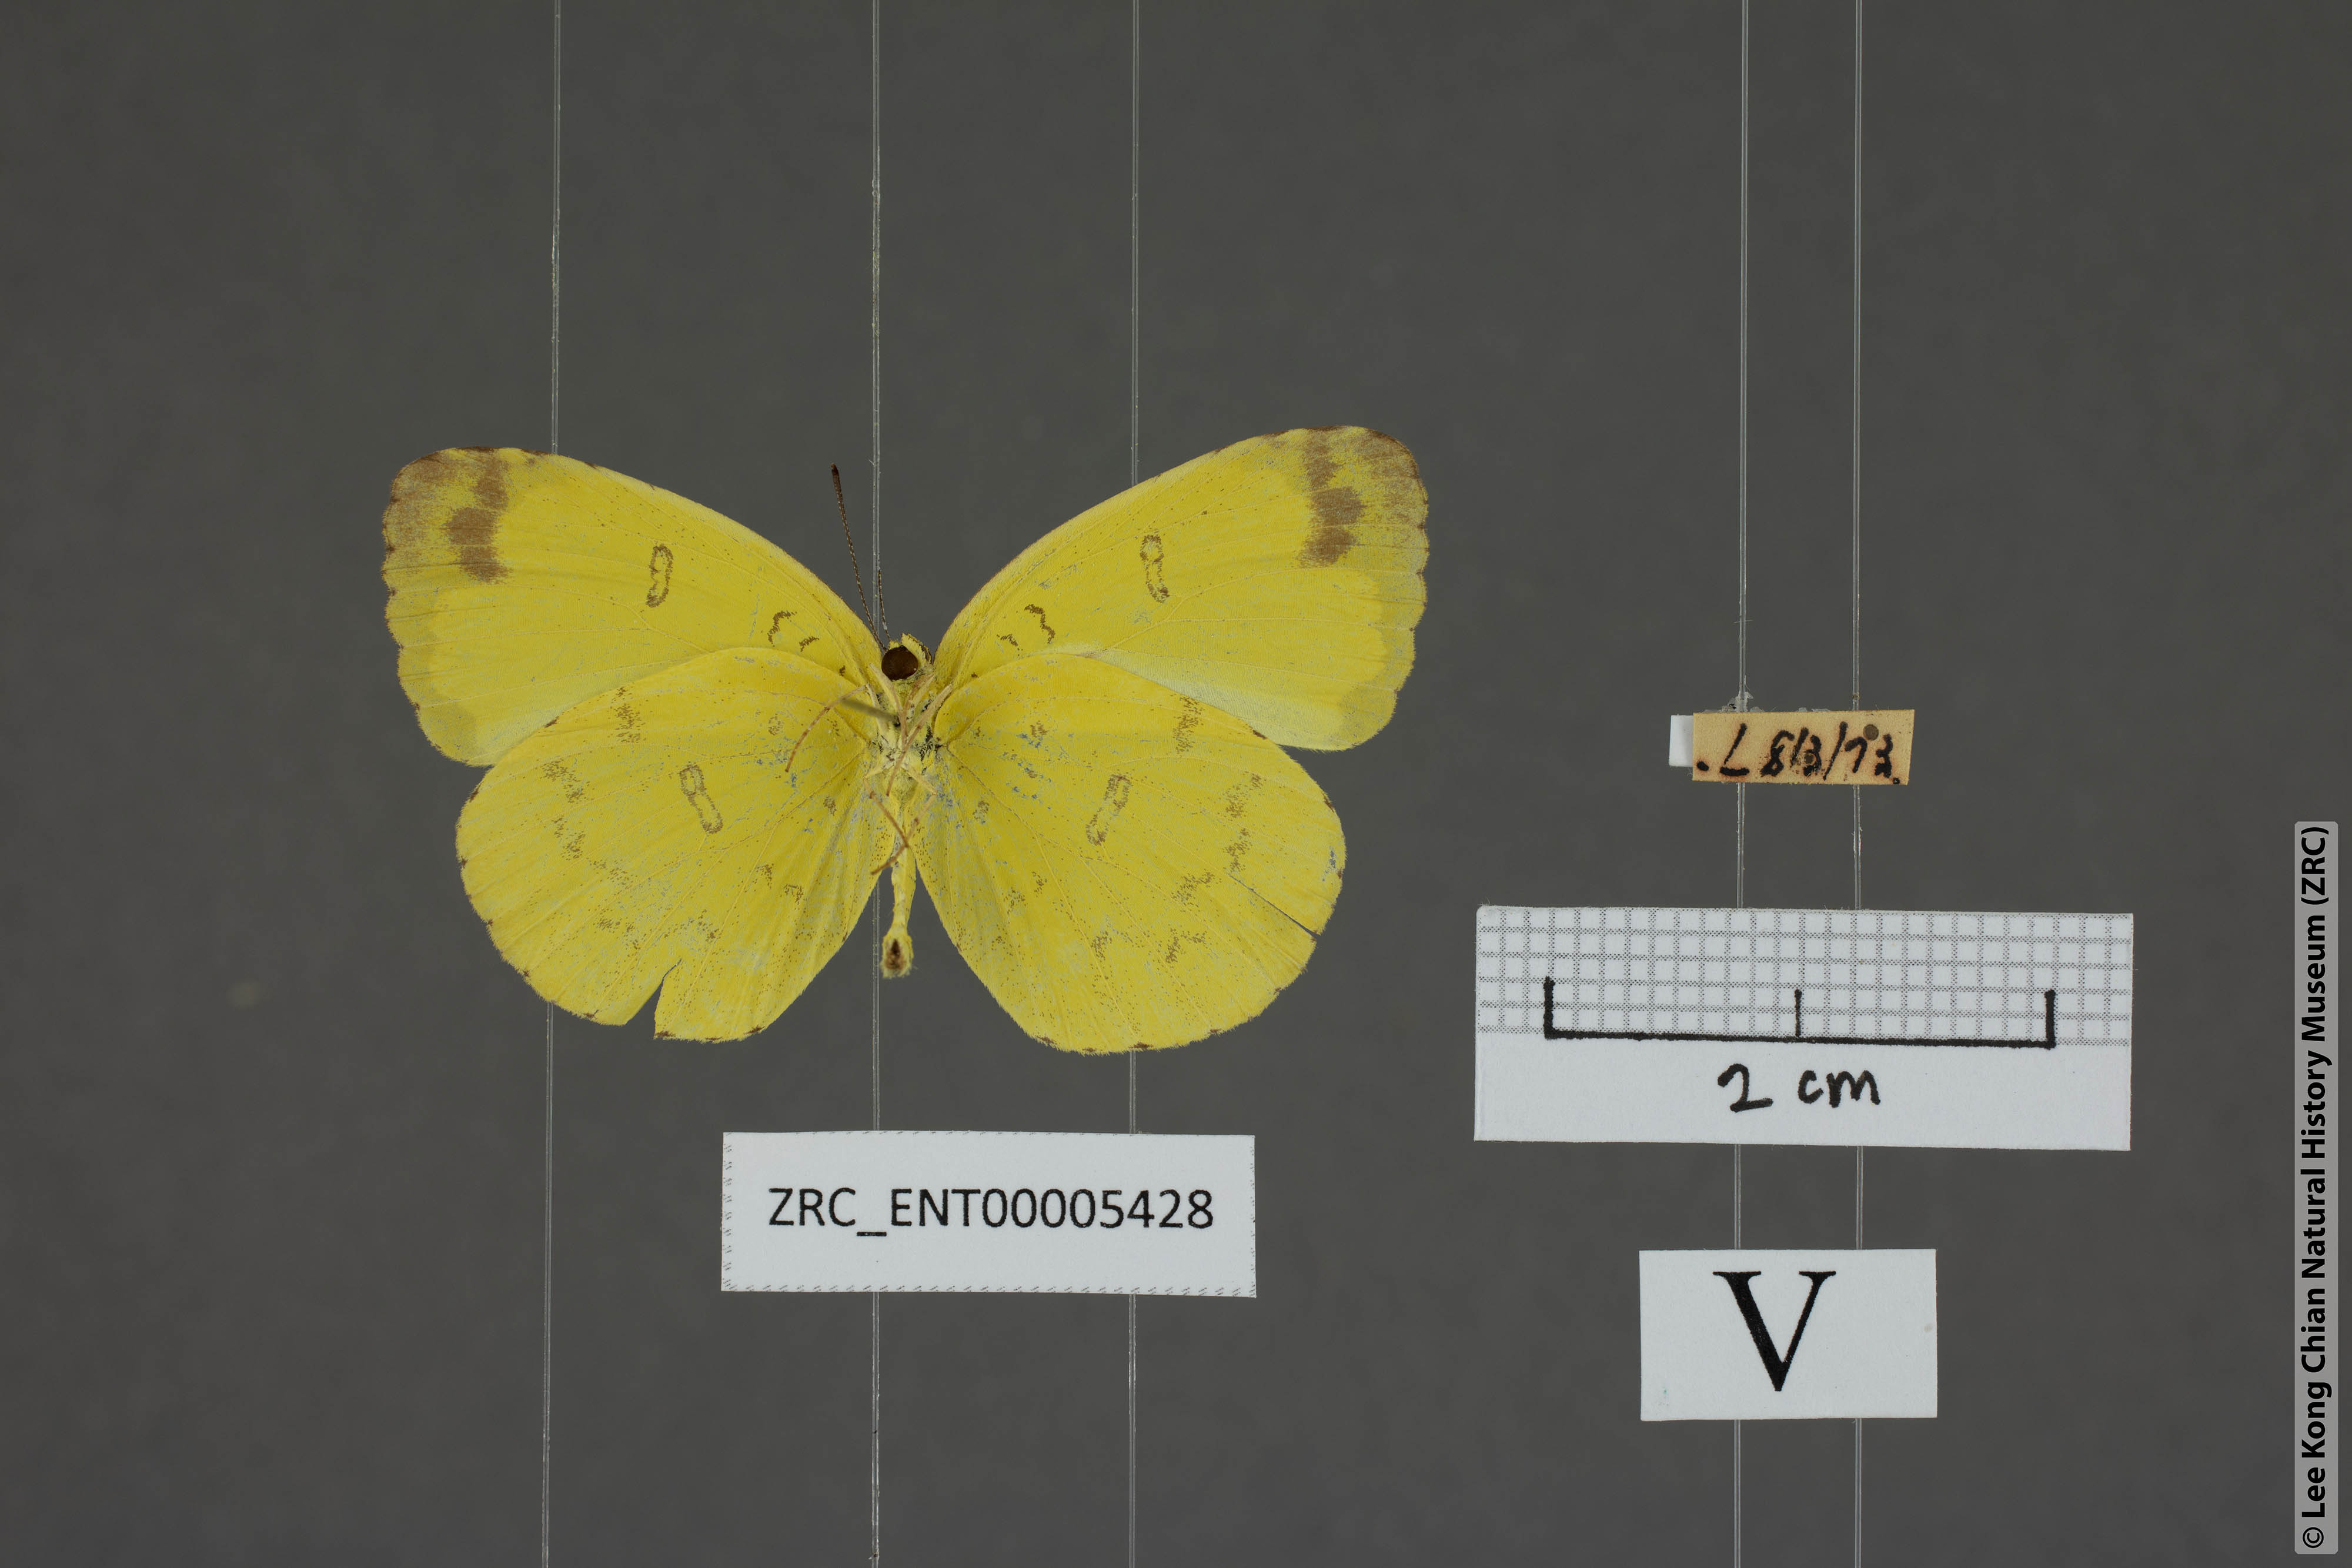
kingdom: Animalia
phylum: Arthropoda
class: Insecta
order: Lepidoptera
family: Pieridae
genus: Eurema
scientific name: Eurema blanda
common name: Three-spot grass yellow
